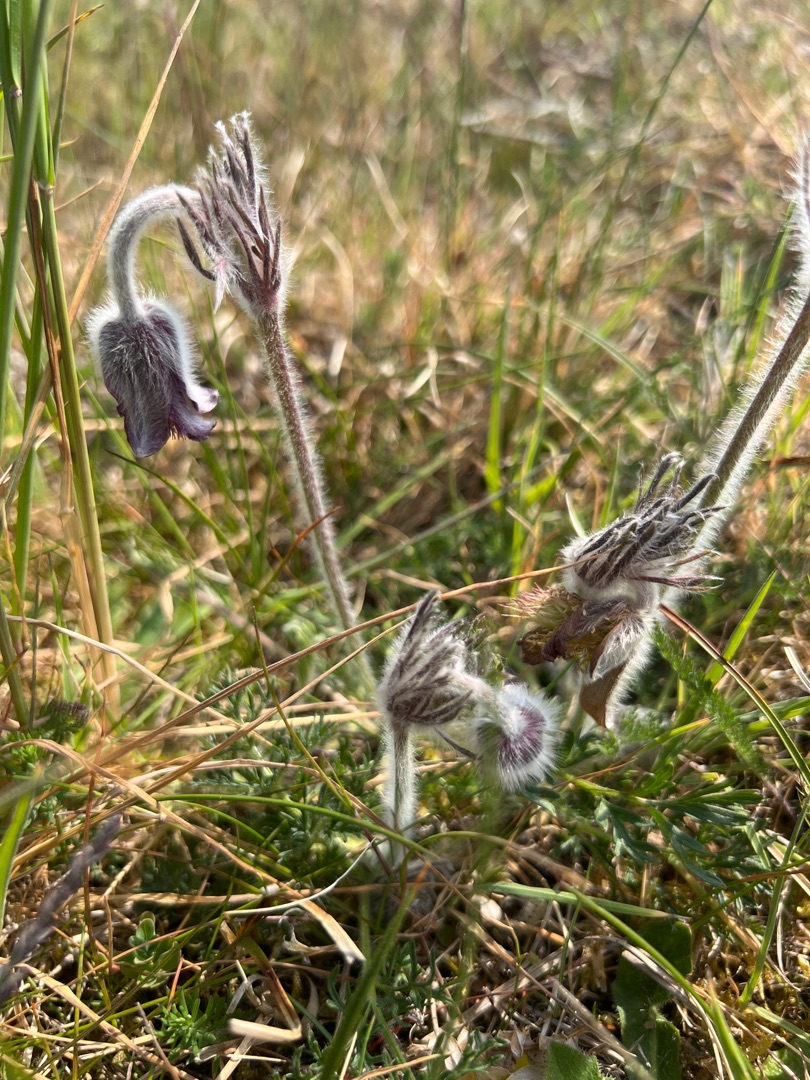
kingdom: Plantae
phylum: Tracheophyta
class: Magnoliopsida
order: Ranunculales
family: Ranunculaceae
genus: Pulsatilla
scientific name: Pulsatilla pratensis
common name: Nikkende kobjælde
